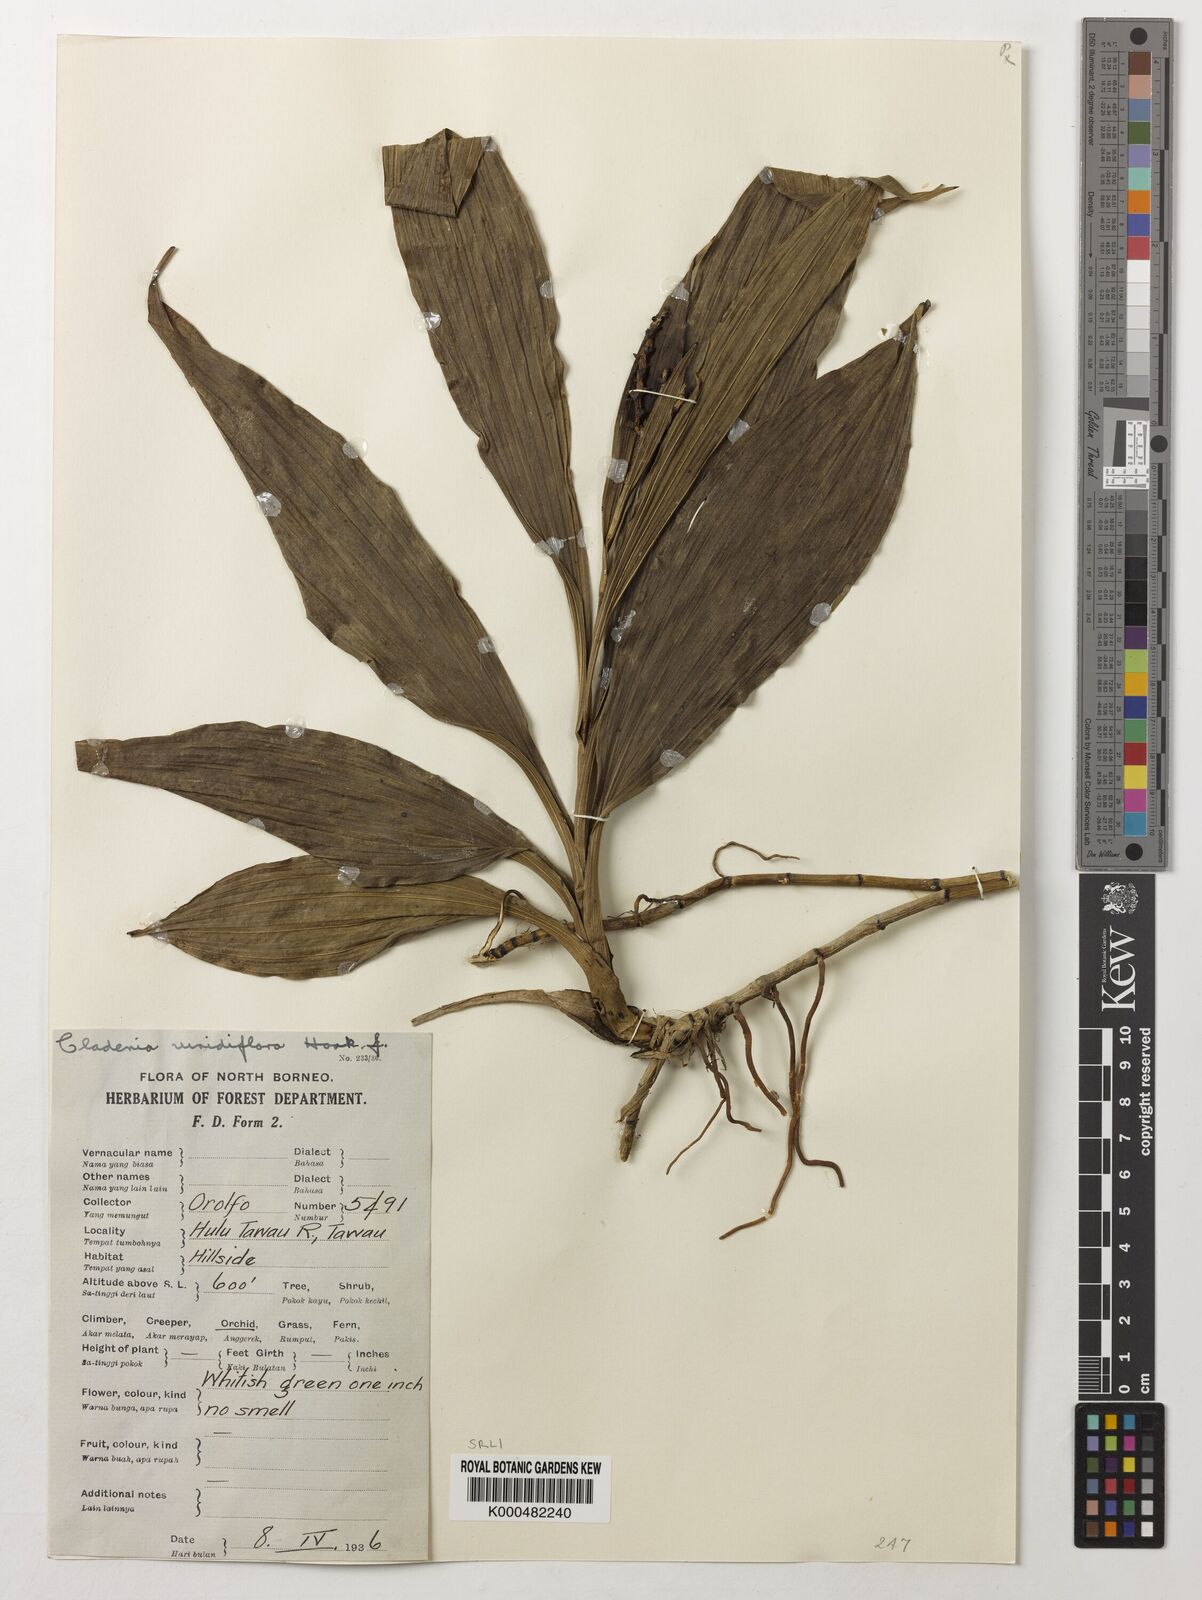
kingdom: Plantae
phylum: Tracheophyta
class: Liliopsida
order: Asparagales
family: Orchidaceae
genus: Claderia
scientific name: Claderia
